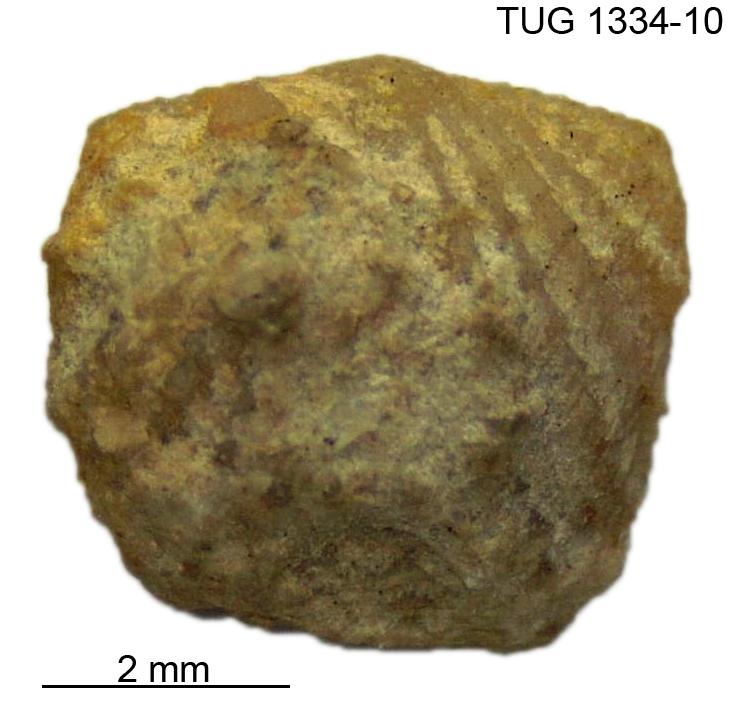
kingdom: Animalia
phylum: Brachiopoda
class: Rhynchonellata
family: Hesperorthidae
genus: Ptychopleurella
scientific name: Ptychopleurella pirguensis
